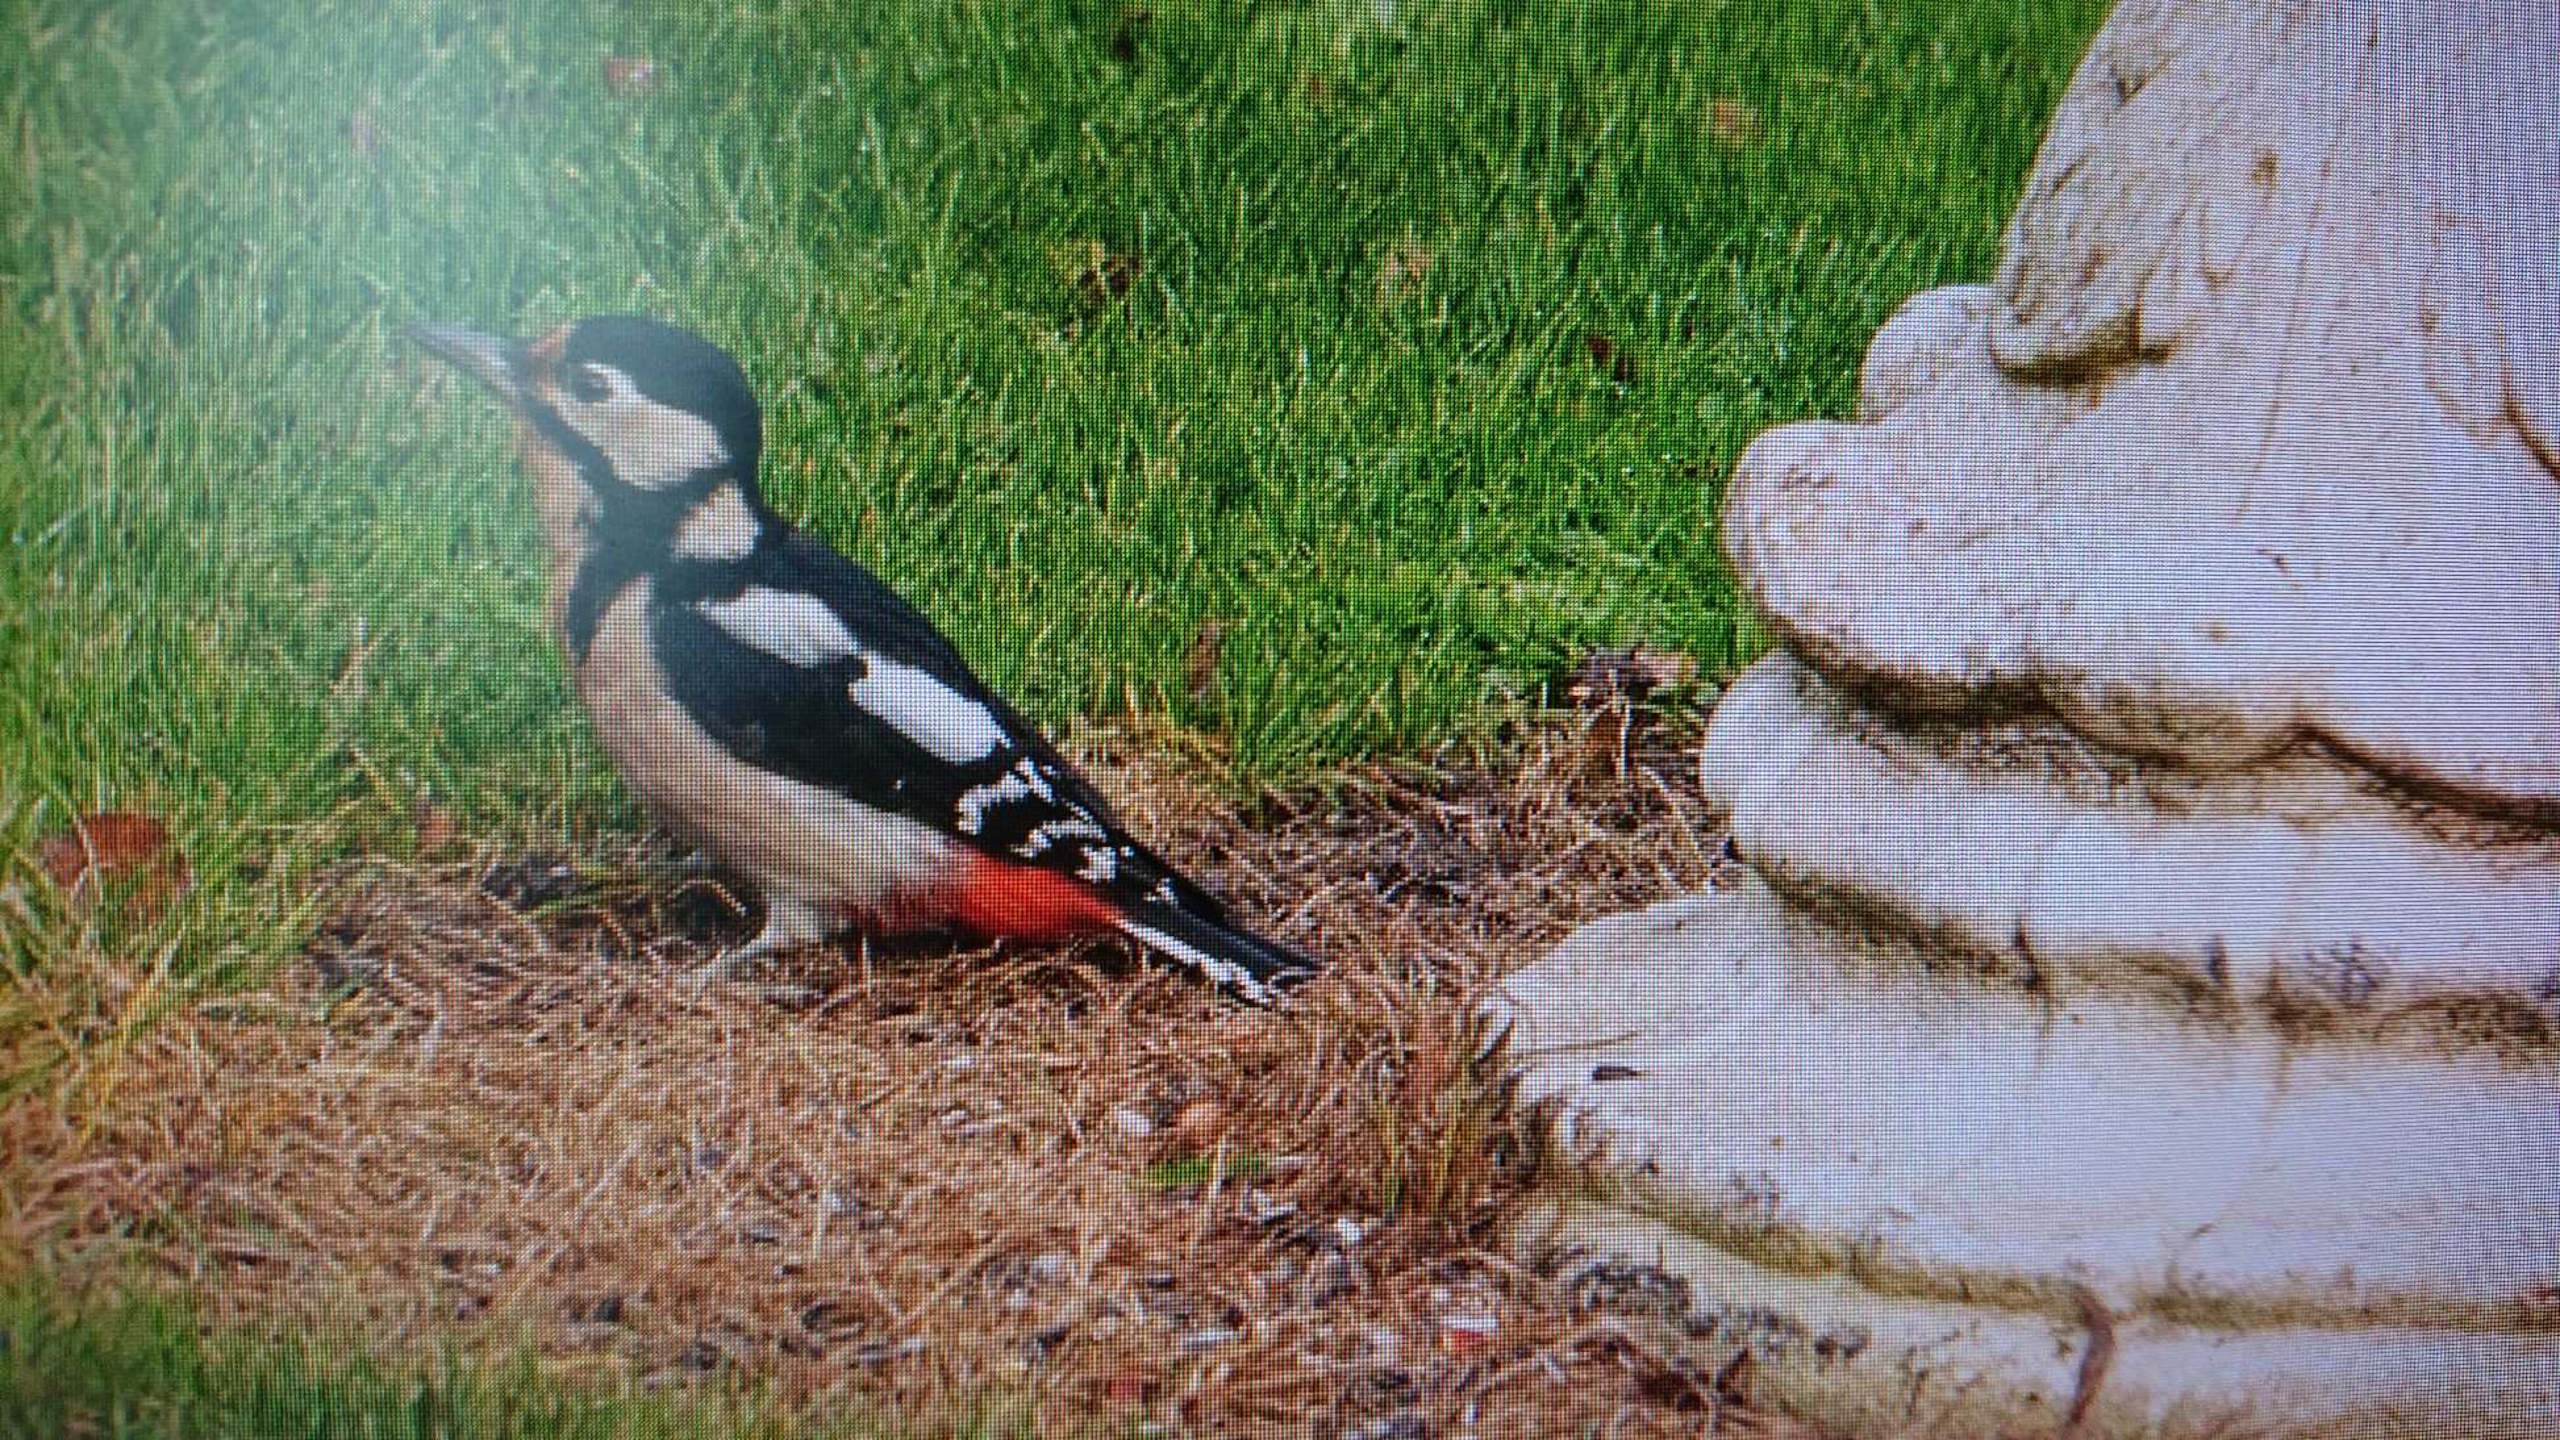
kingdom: Animalia
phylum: Chordata
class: Aves
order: Piciformes
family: Picidae
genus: Dendrocopos
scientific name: Dendrocopos major
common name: Stor flagspætte
